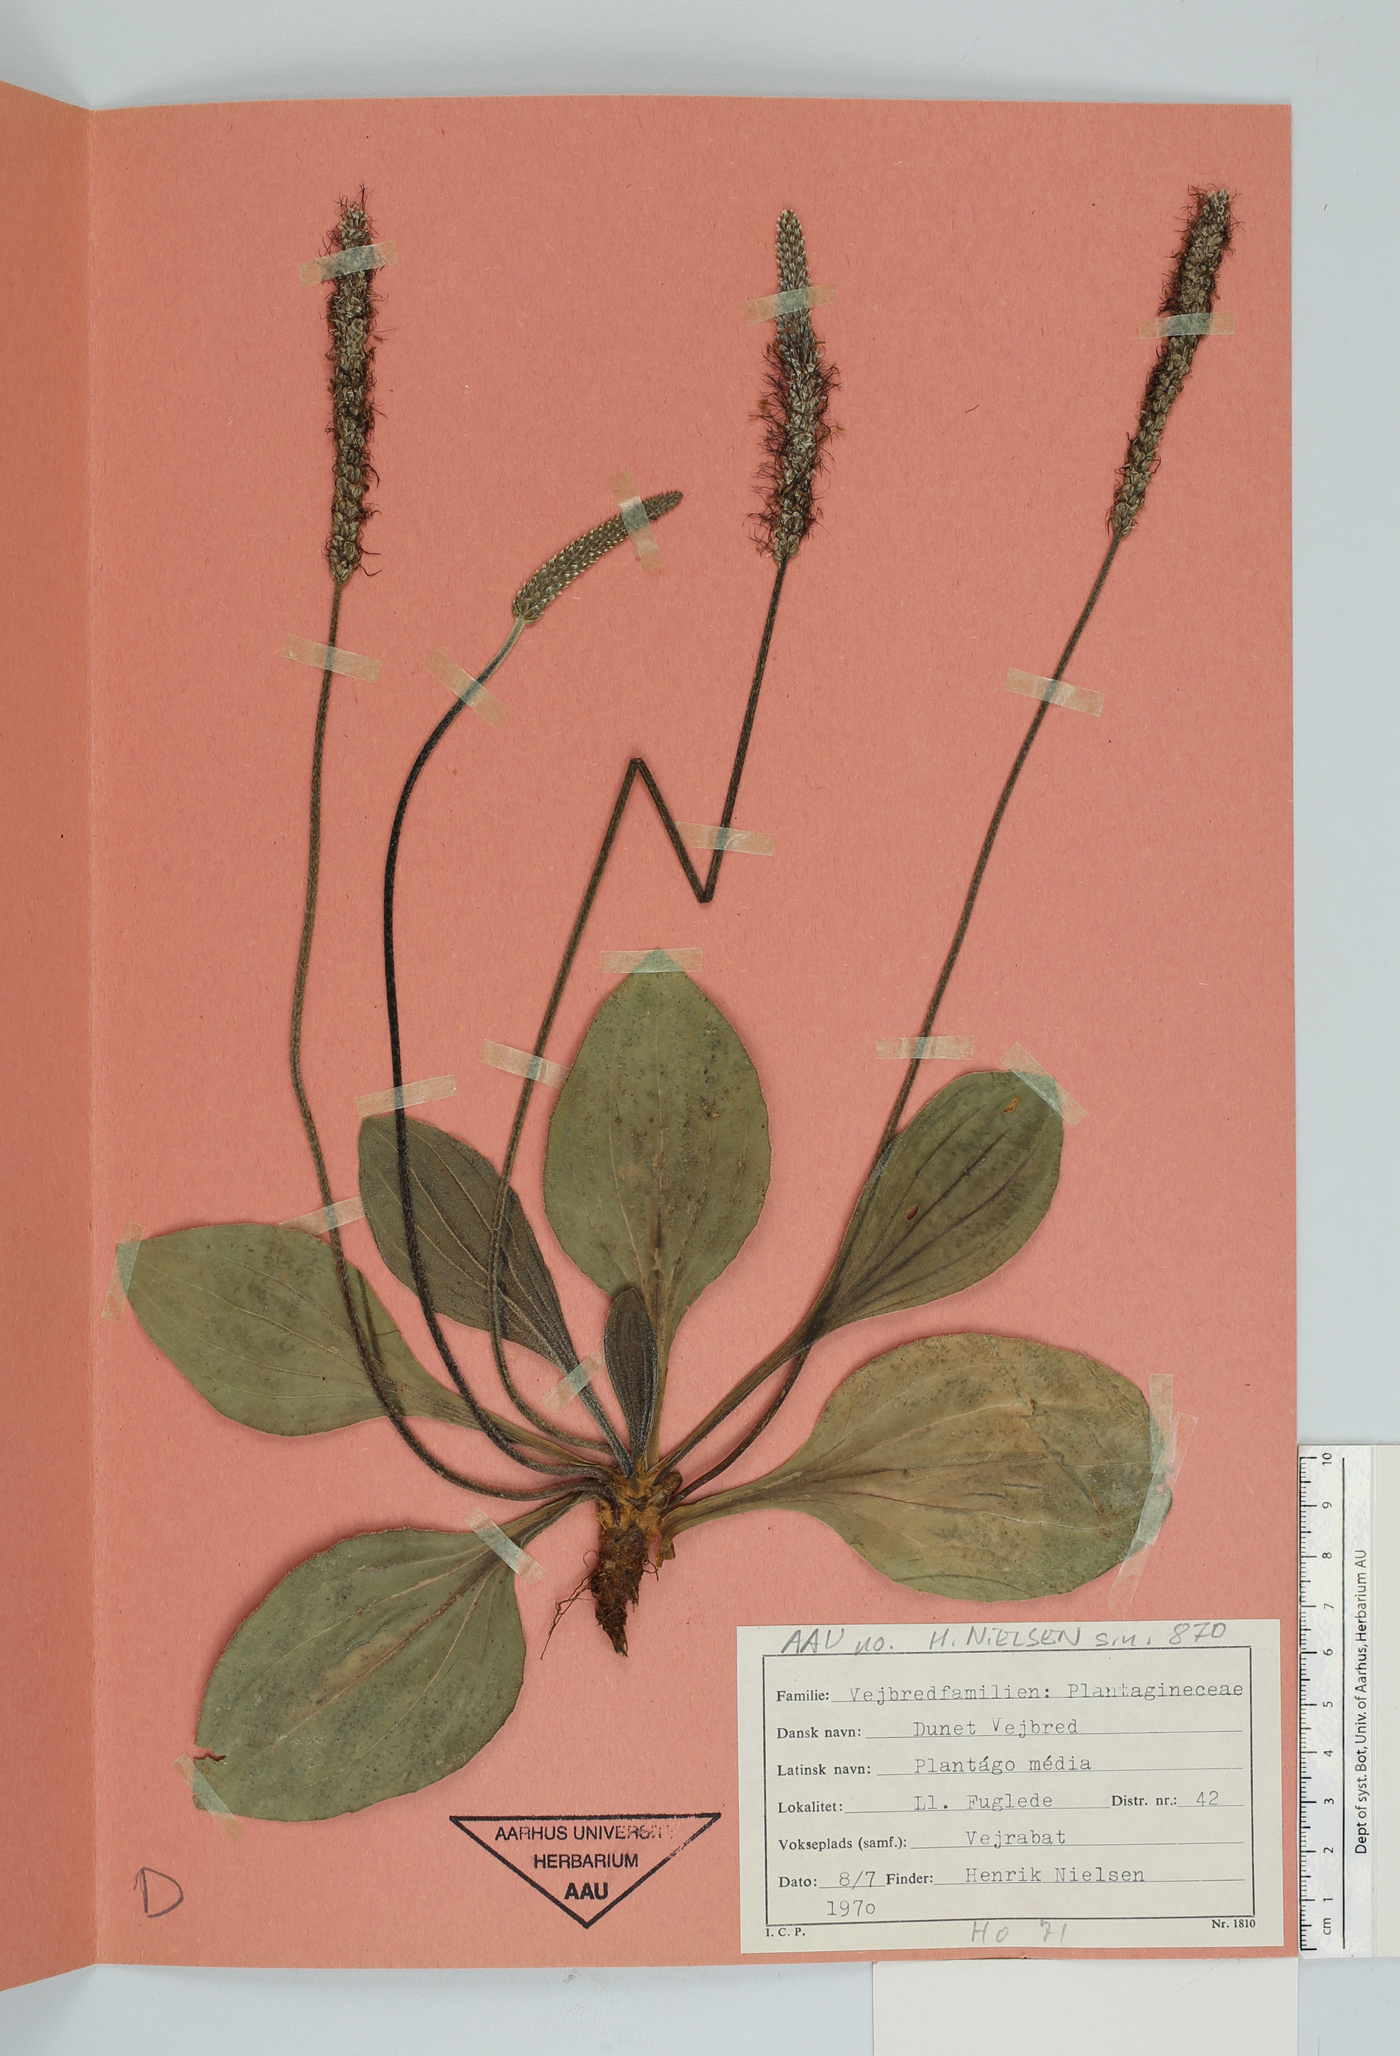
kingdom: Plantae
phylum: Tracheophyta
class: Magnoliopsida
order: Lamiales
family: Plantaginaceae
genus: Plantago
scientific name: Plantago media
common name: Hoary plantain
